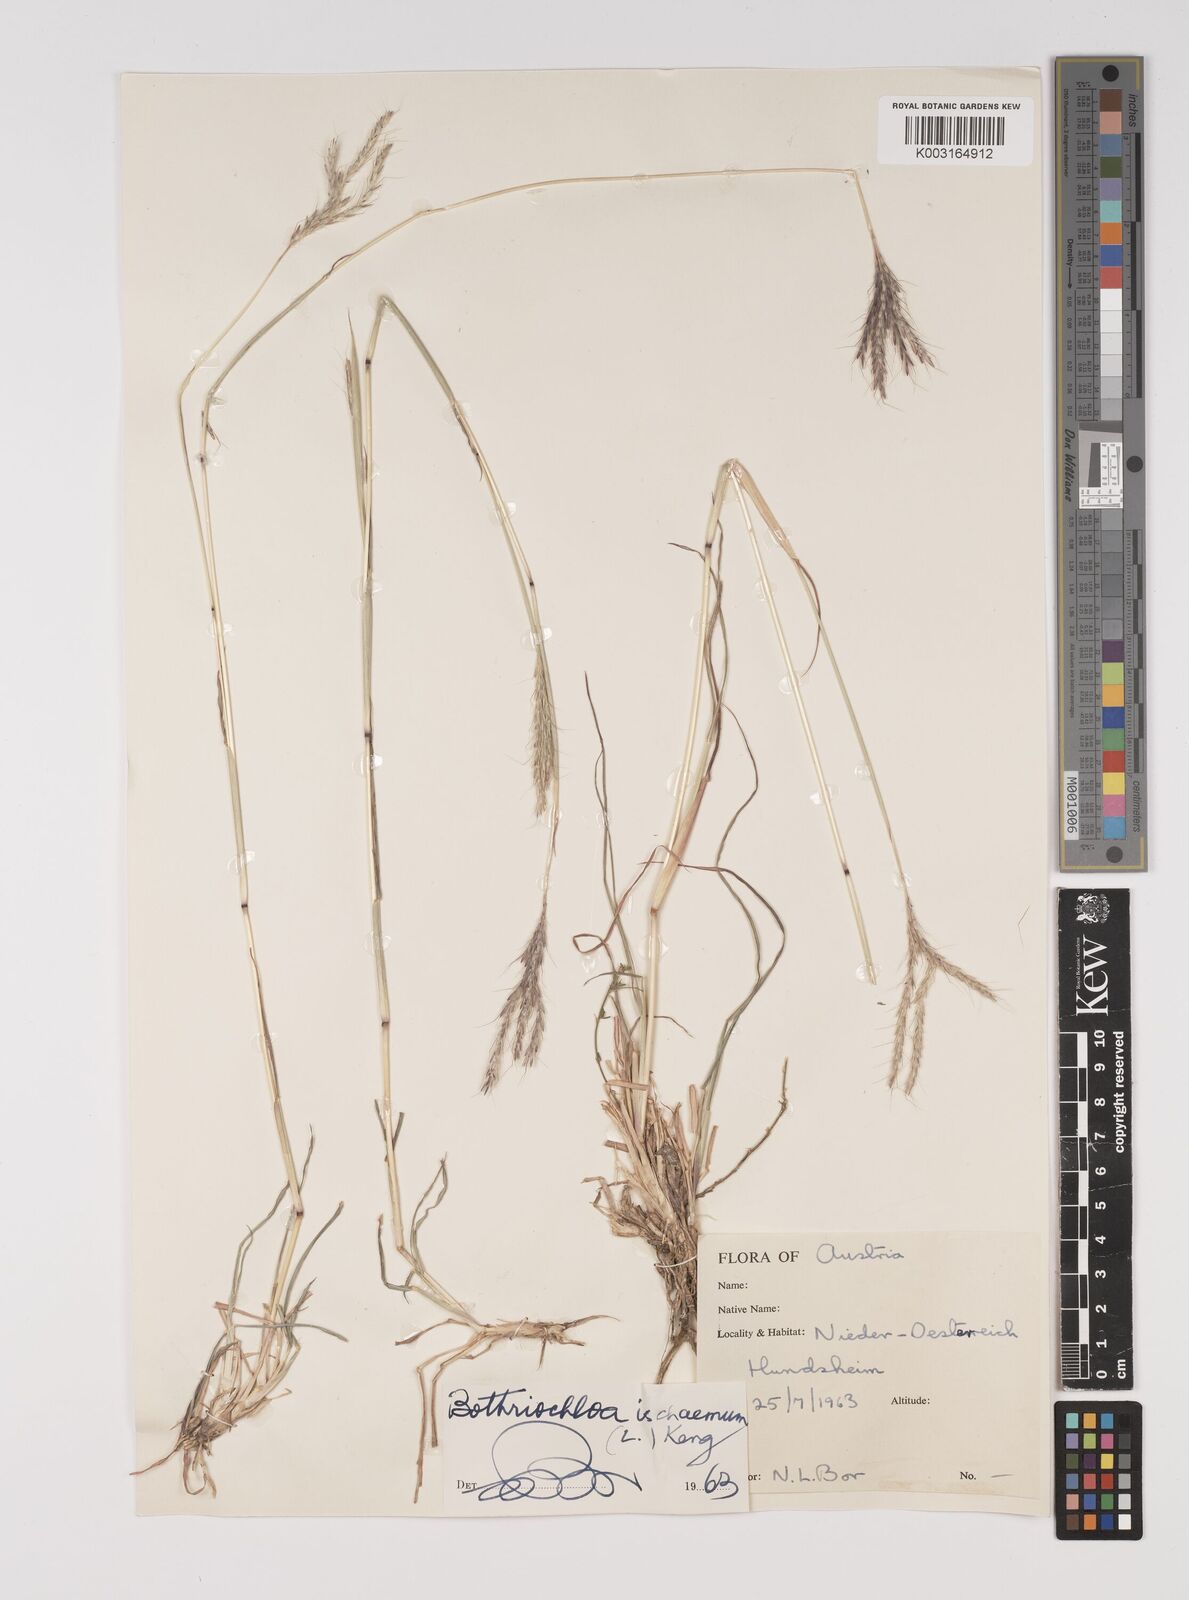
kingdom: Plantae
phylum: Tracheophyta
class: Liliopsida
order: Poales
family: Poaceae
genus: Bothriochloa
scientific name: Bothriochloa ischaemum
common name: Yellow bluestem
